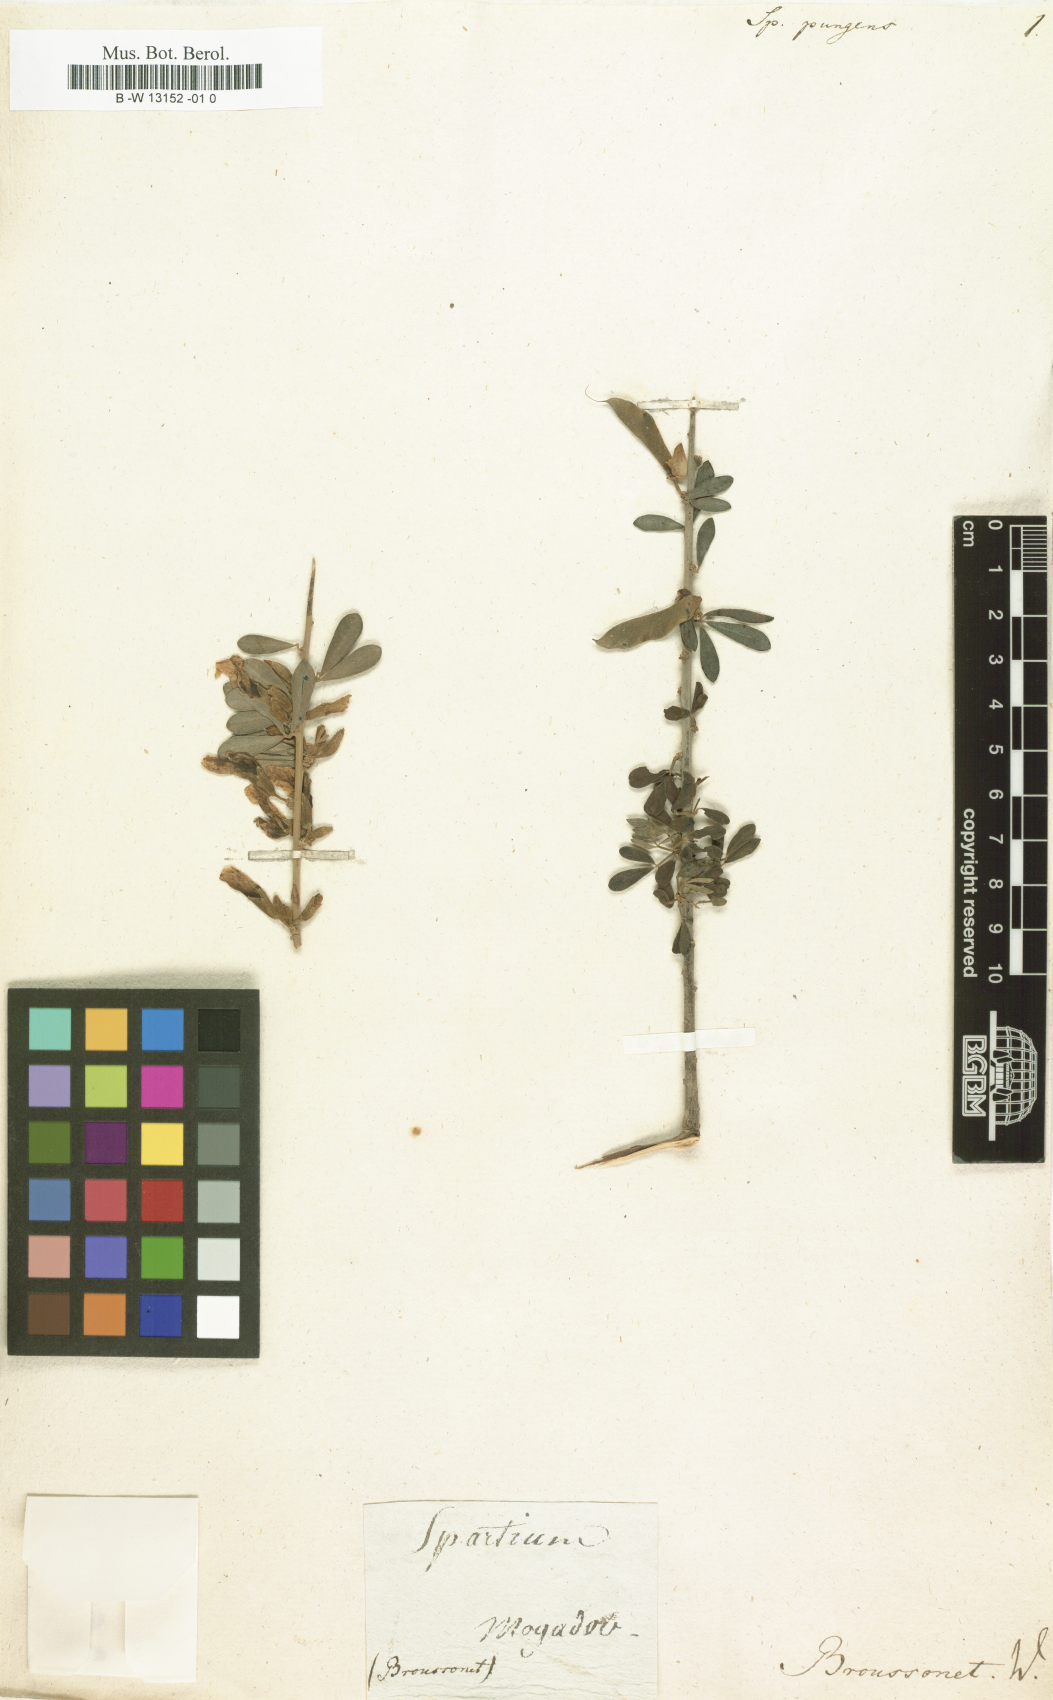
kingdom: Plantae
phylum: Tracheophyta
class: Magnoliopsida
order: Fabales
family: Fabaceae
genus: Cytisus
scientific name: Cytisus pungens
